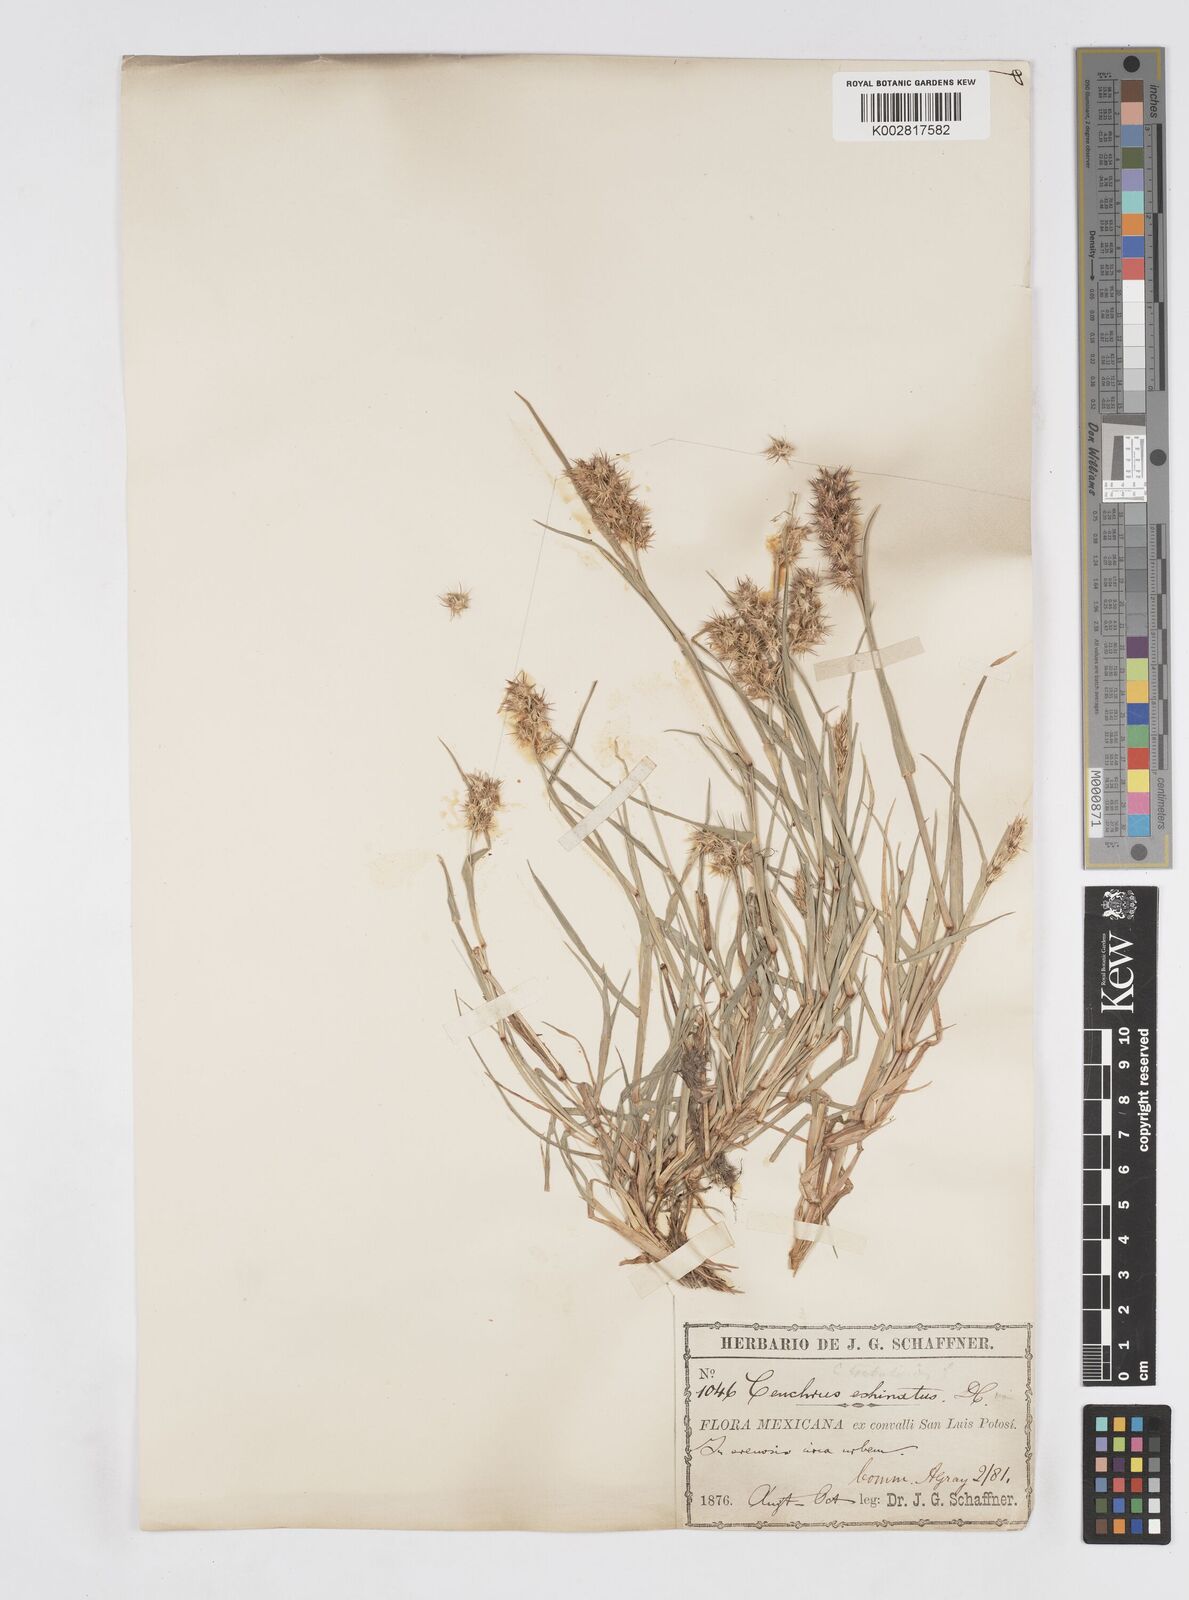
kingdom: Plantae
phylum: Tracheophyta
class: Liliopsida
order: Poales
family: Poaceae
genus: Cenchrus
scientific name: Cenchrus spinifex
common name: Coast sandbur
